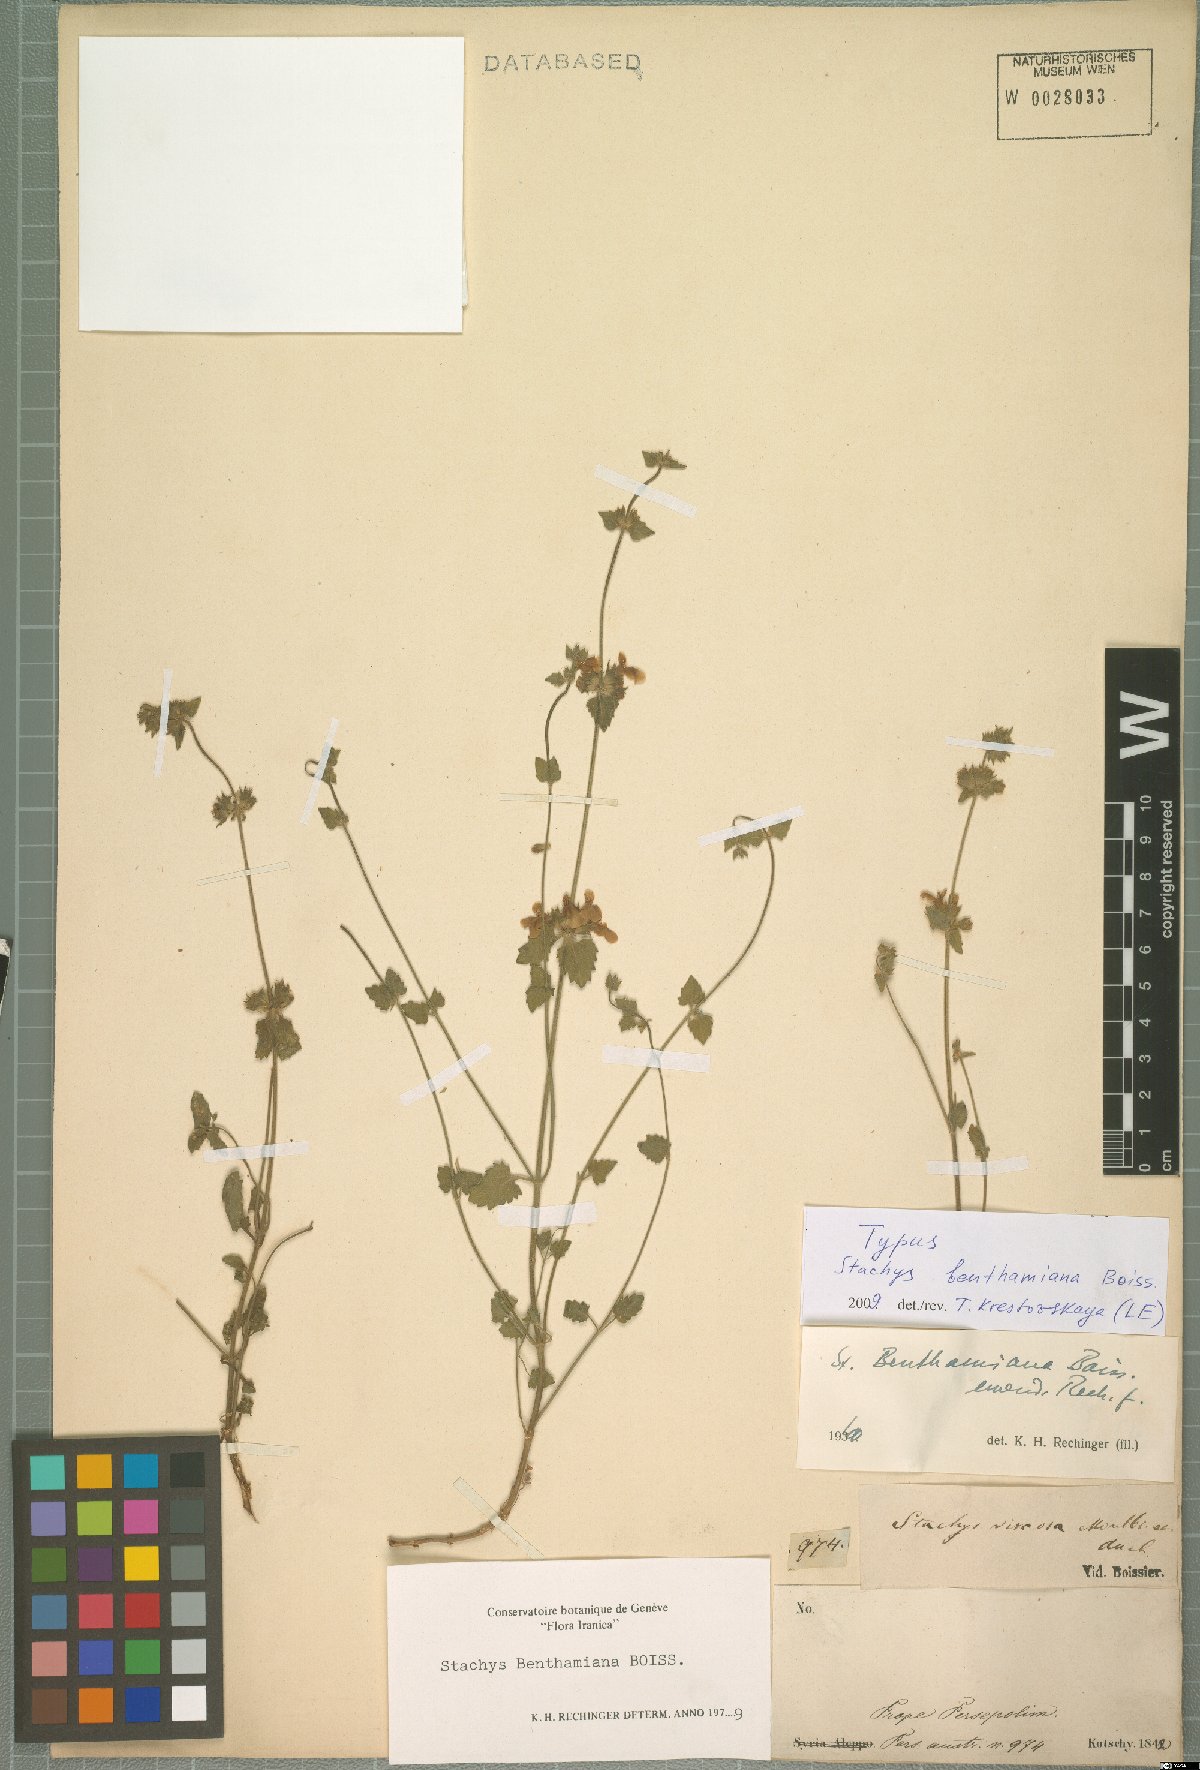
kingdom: Plantae
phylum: Tracheophyta
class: Magnoliopsida
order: Lamiales
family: Lamiaceae
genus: Stachys
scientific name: Stachys benthamiana
